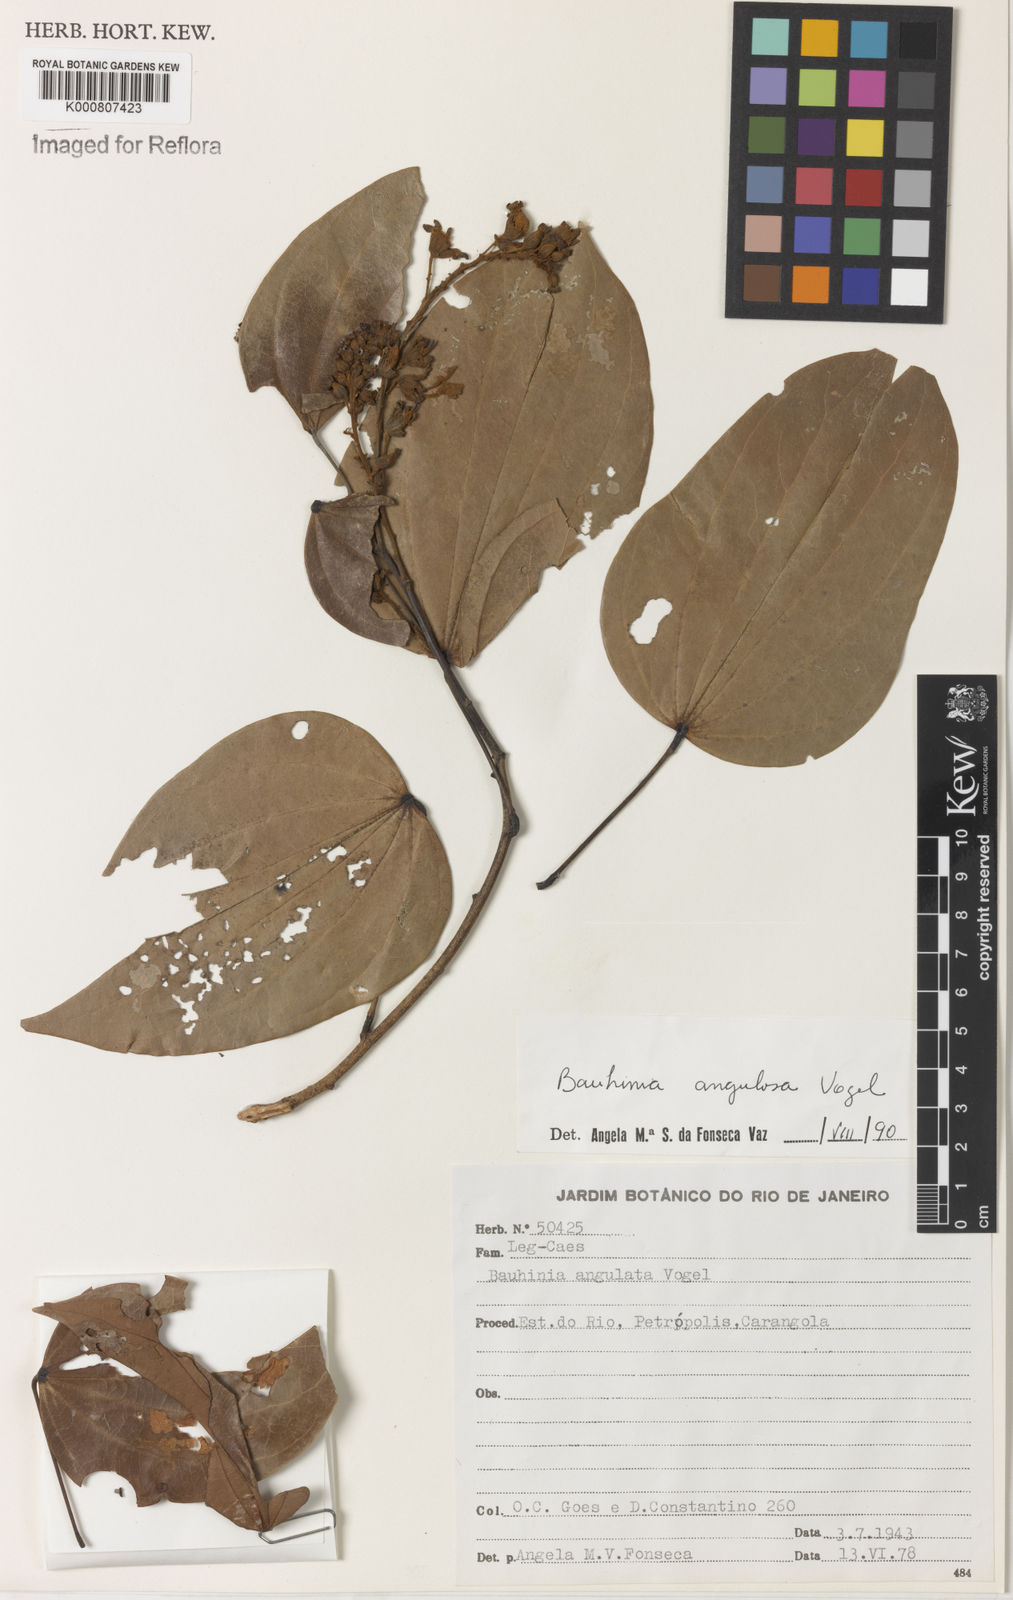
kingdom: Plantae
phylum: Tracheophyta
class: Magnoliopsida
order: Fabales
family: Fabaceae
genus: Schnella
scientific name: Schnella angulosa
